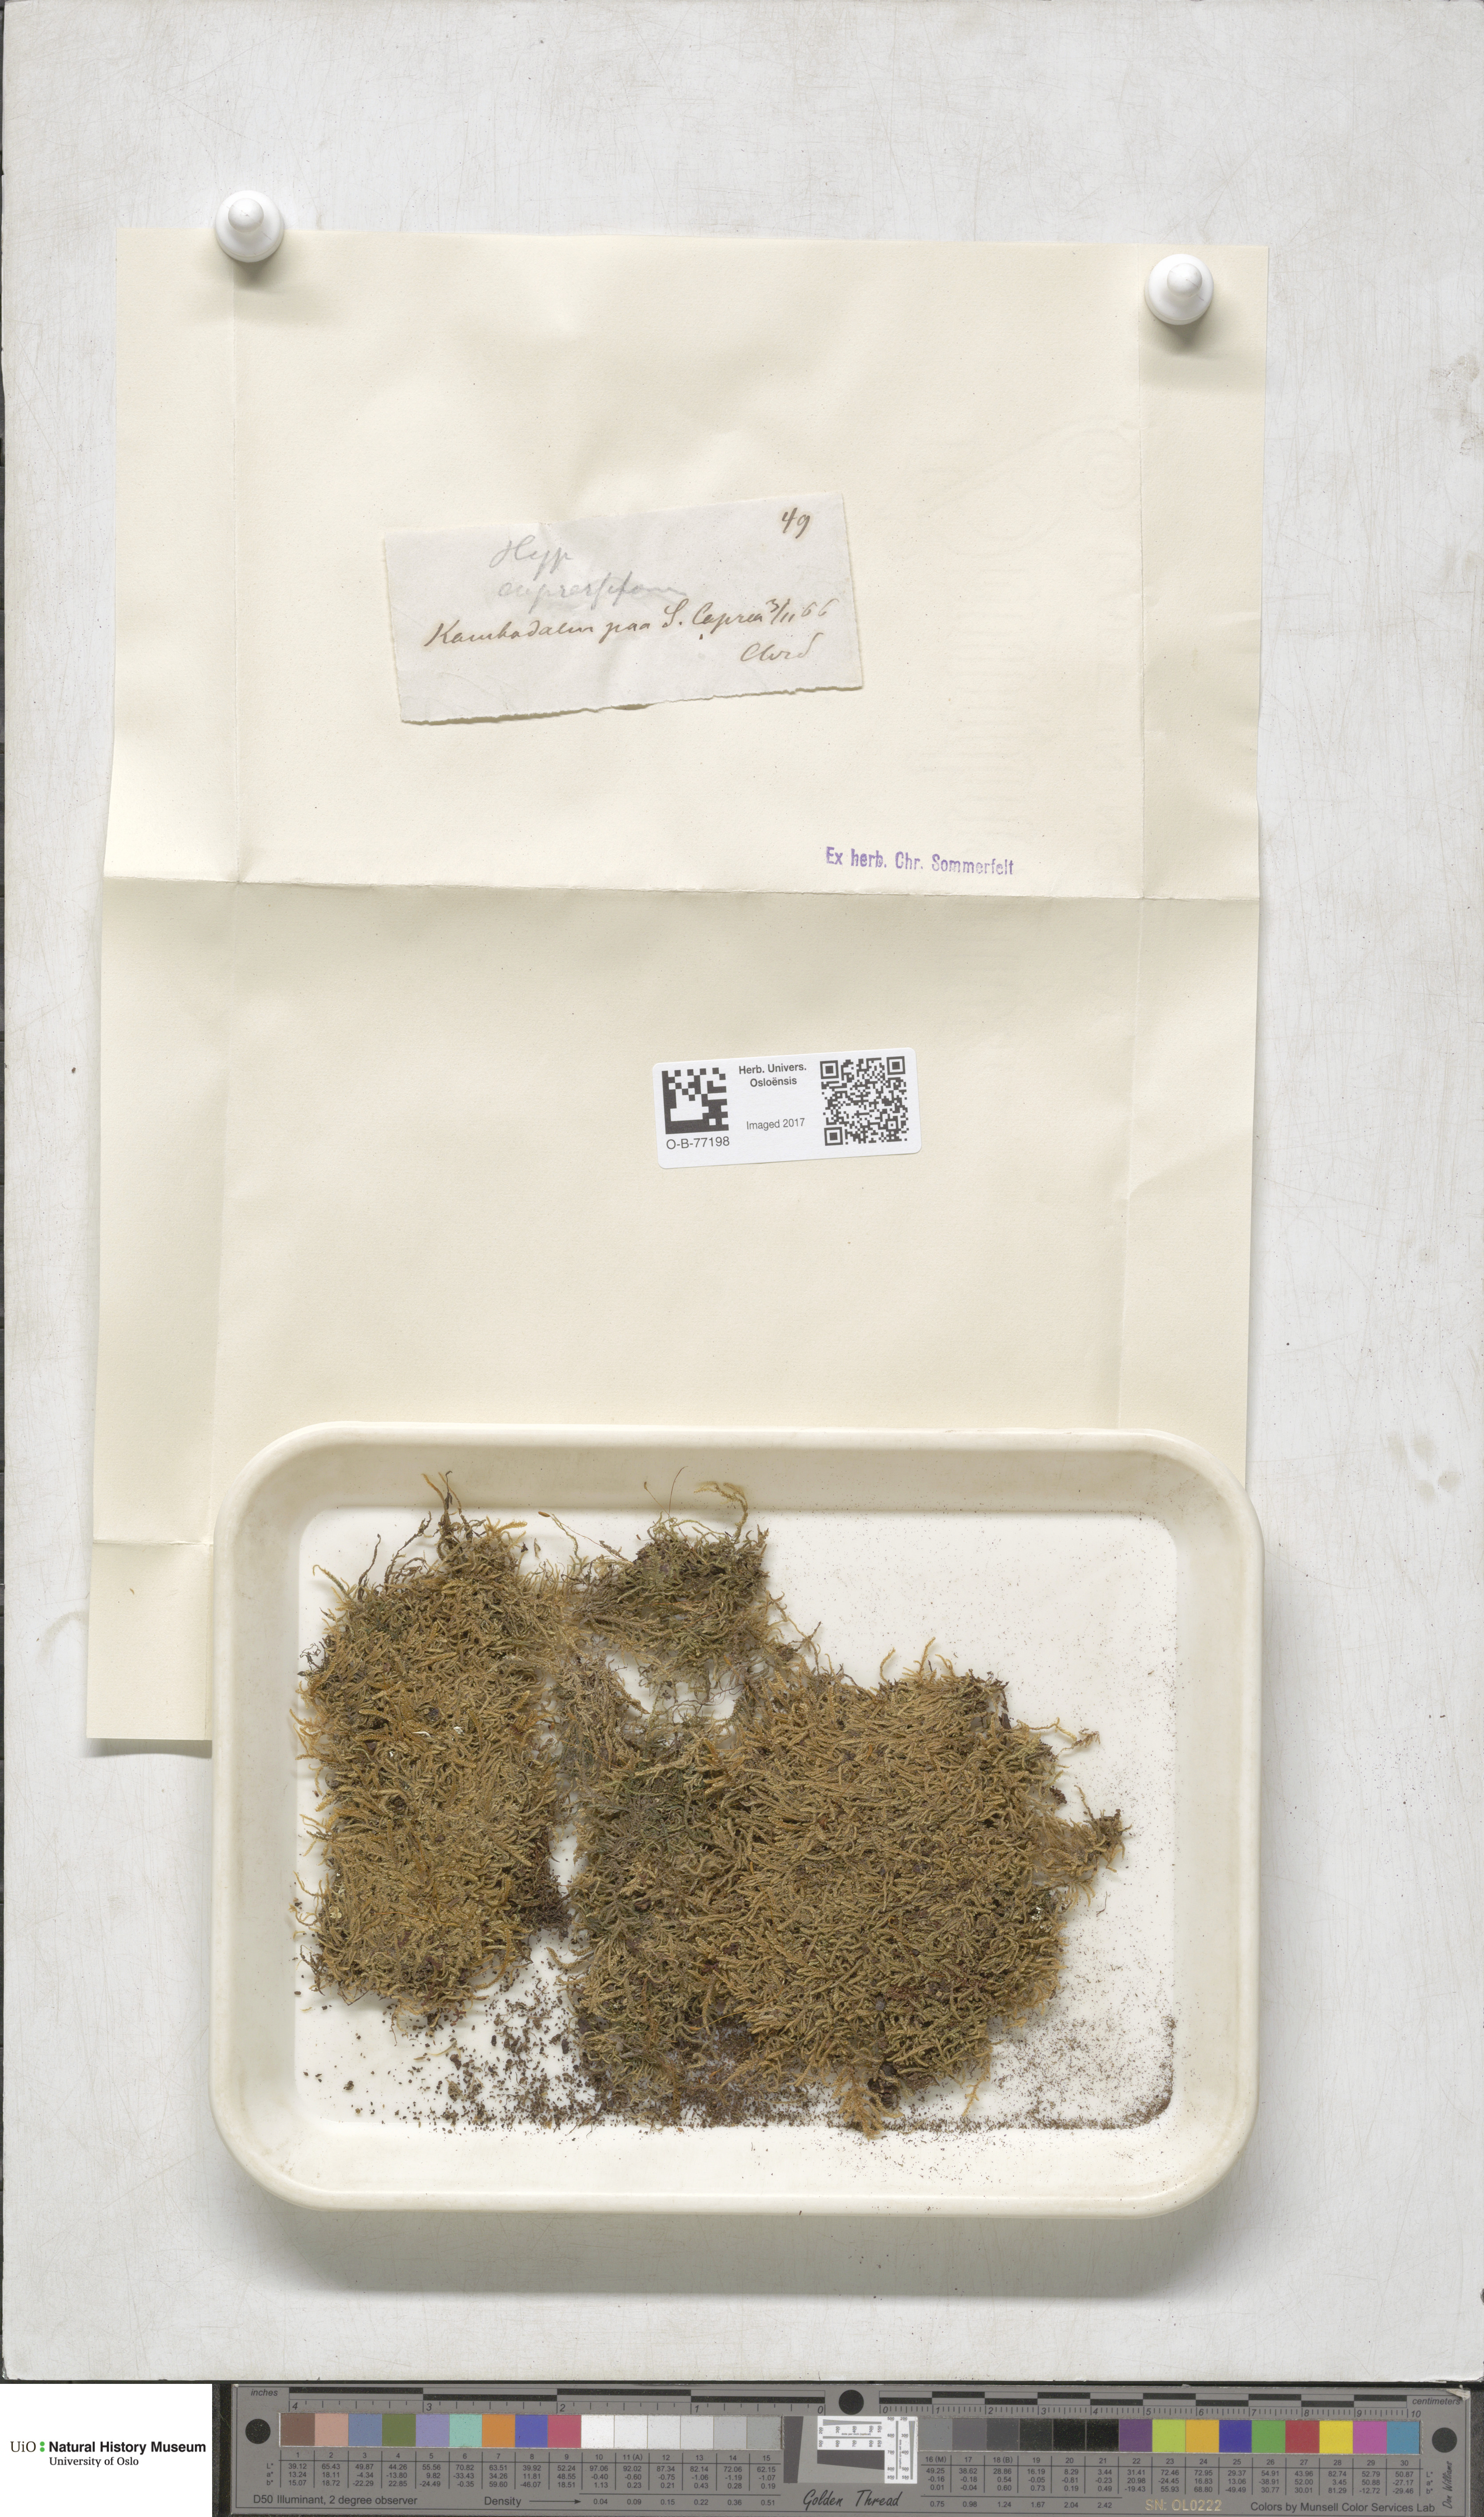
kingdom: Plantae
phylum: Bryophyta
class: Bryopsida
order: Hypnales
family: Hypnaceae
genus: Hypnum
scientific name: Hypnum cupressiforme
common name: Cypress-leaved plait-moss
